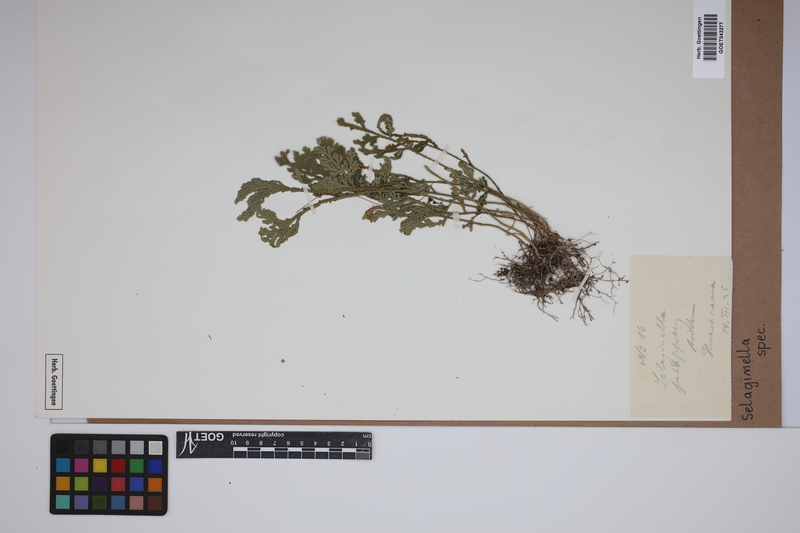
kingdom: Plantae
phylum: Tracheophyta
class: Lycopodiopsida
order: Selaginellales
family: Selaginellaceae
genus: Selaginella
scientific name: Selaginella
